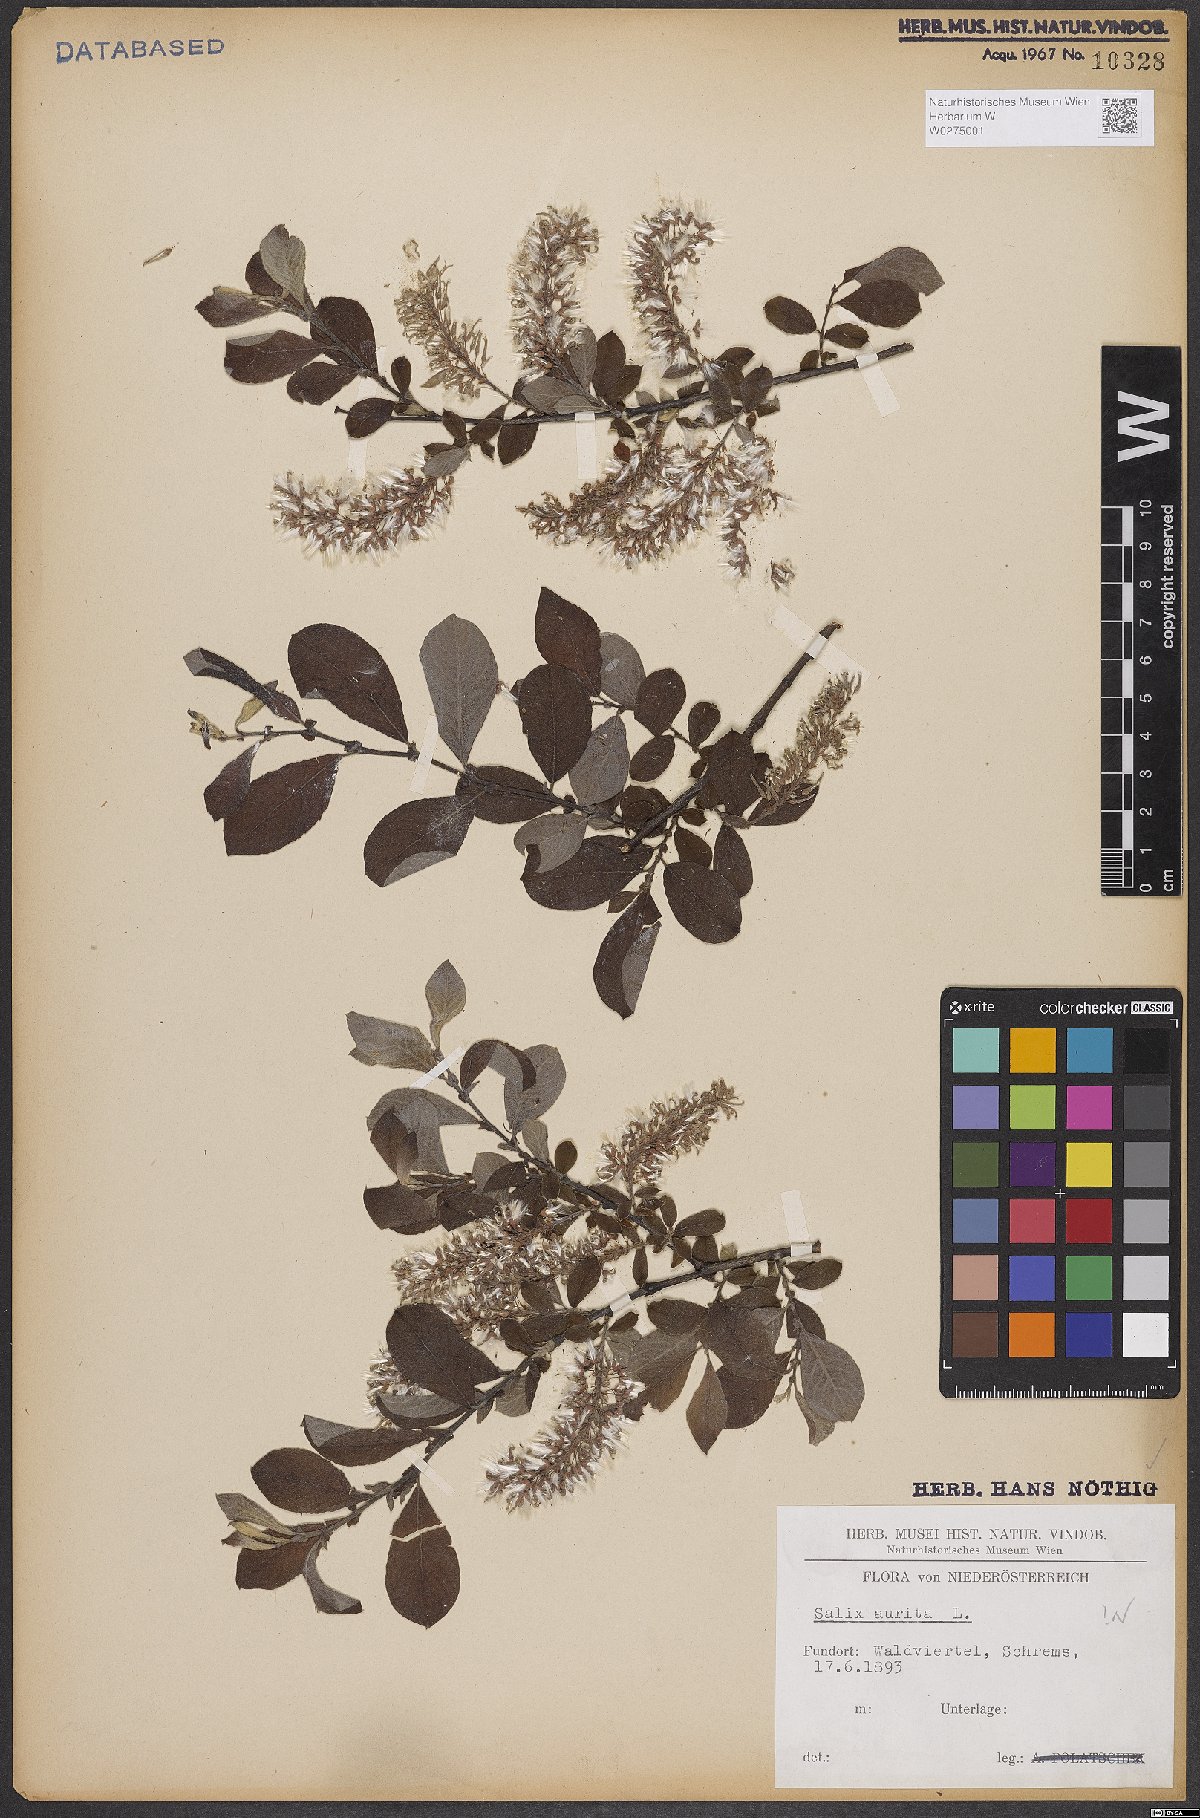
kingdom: Plantae
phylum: Tracheophyta
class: Magnoliopsida
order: Malpighiales
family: Salicaceae
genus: Salix
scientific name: Salix aurita
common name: Eared willow
